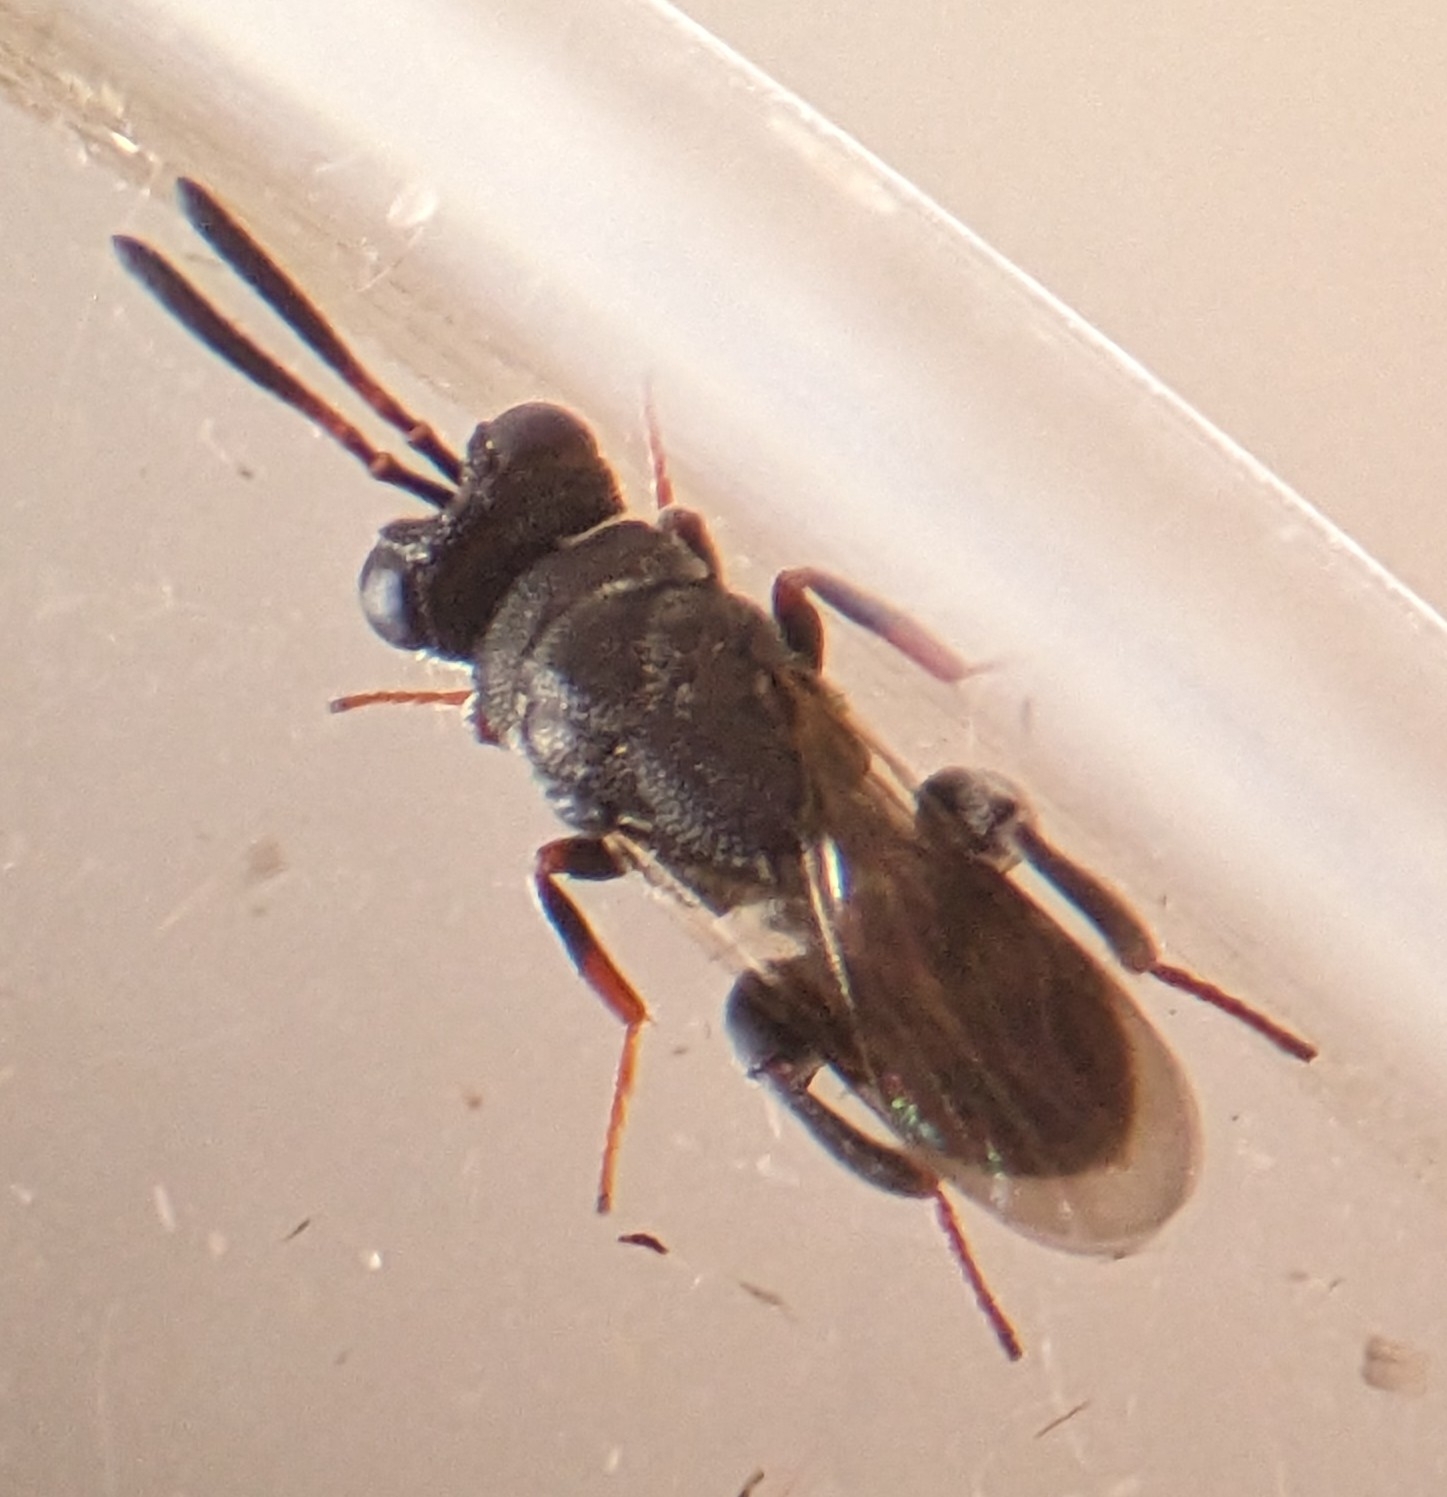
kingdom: Animalia
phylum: Arthropoda
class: Insecta
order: Hymenoptera
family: Chalcididae
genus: Haltichella
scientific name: Haltichella rufipes
